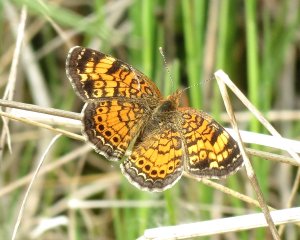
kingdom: Animalia
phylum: Arthropoda
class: Insecta
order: Lepidoptera
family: Nymphalidae
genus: Phyciodes
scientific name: Phyciodes tharos
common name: Northern Crescent
